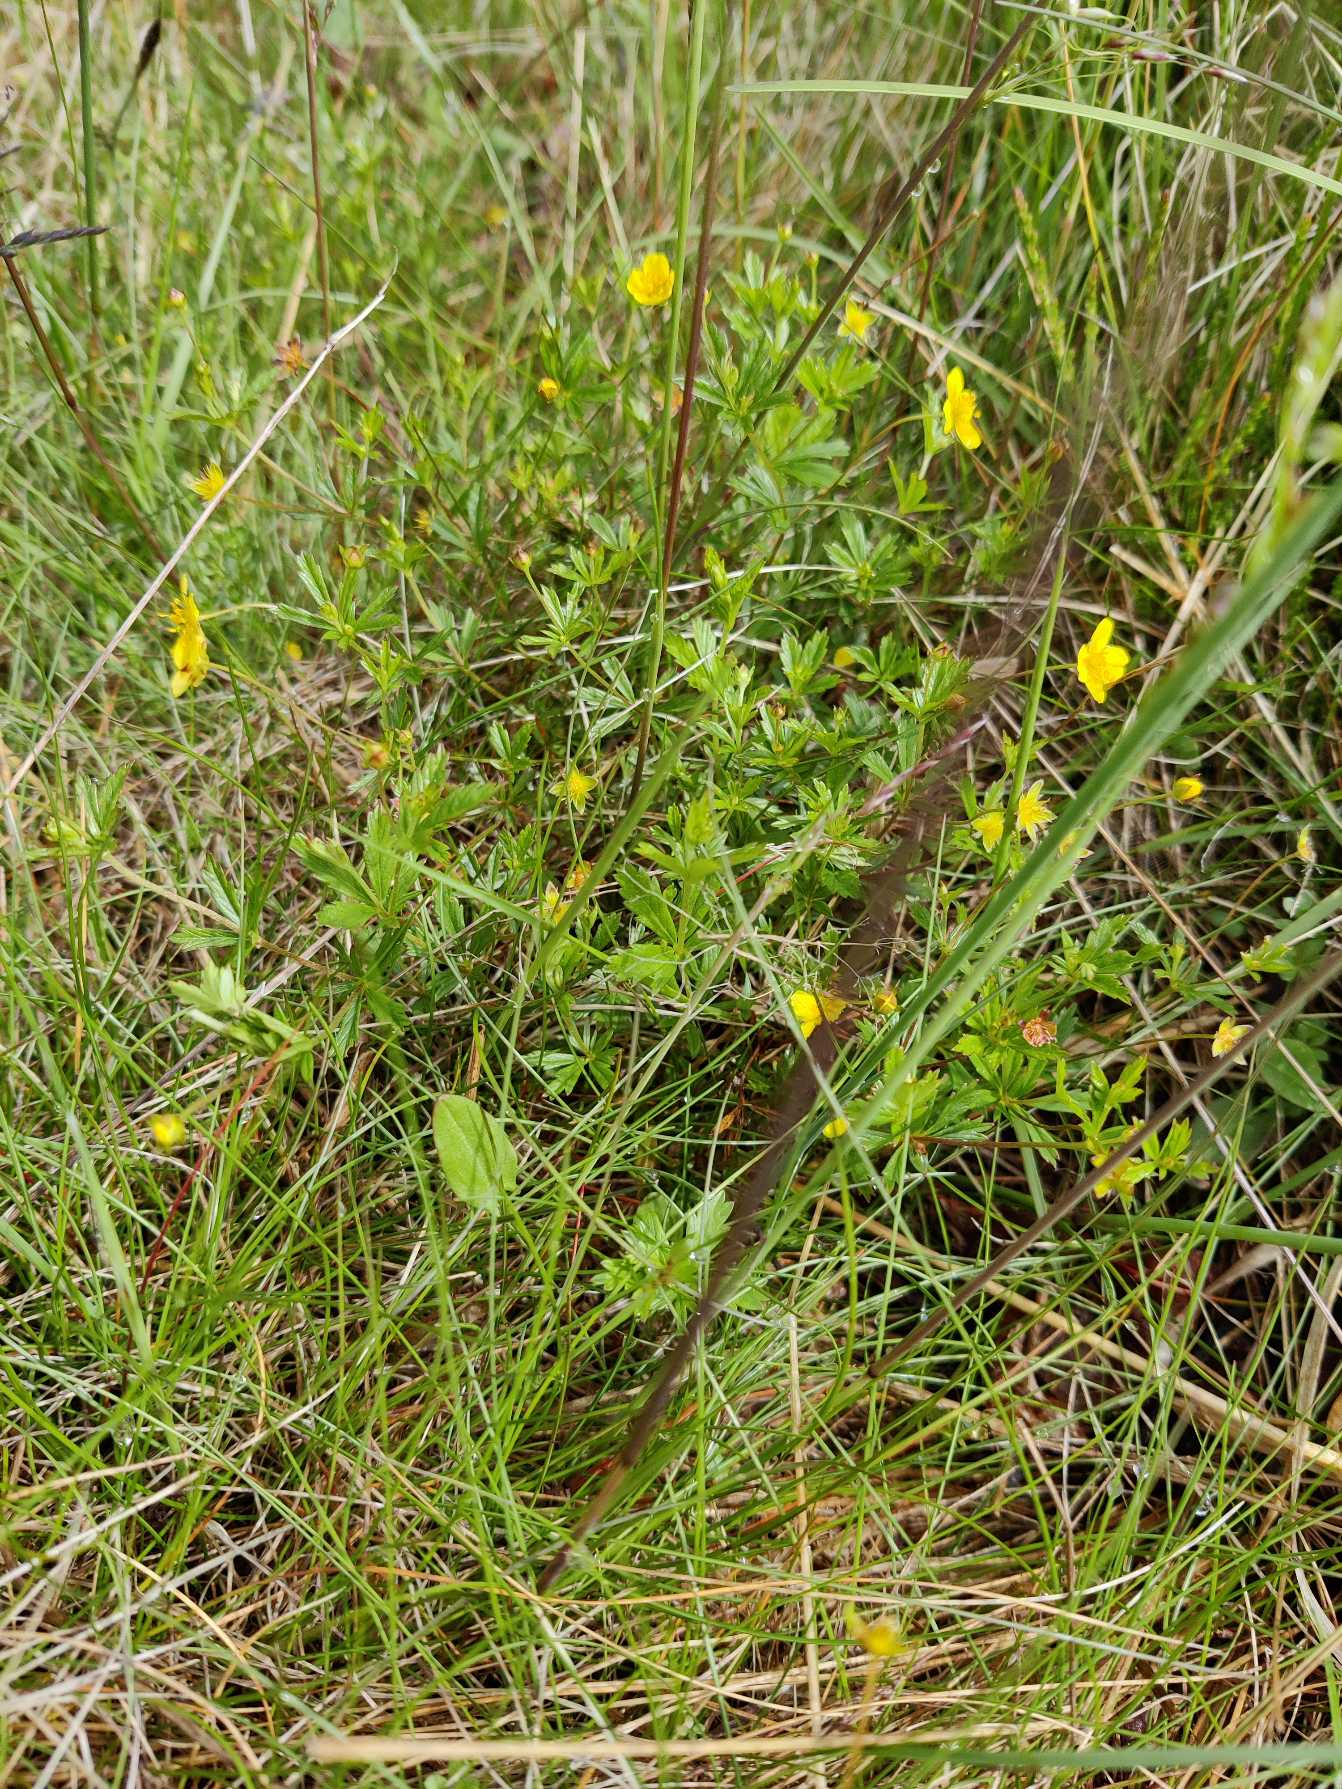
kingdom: Plantae
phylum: Tracheophyta
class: Magnoliopsida
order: Rosales
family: Rosaceae
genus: Potentilla
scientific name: Potentilla erecta
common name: Tormentil
